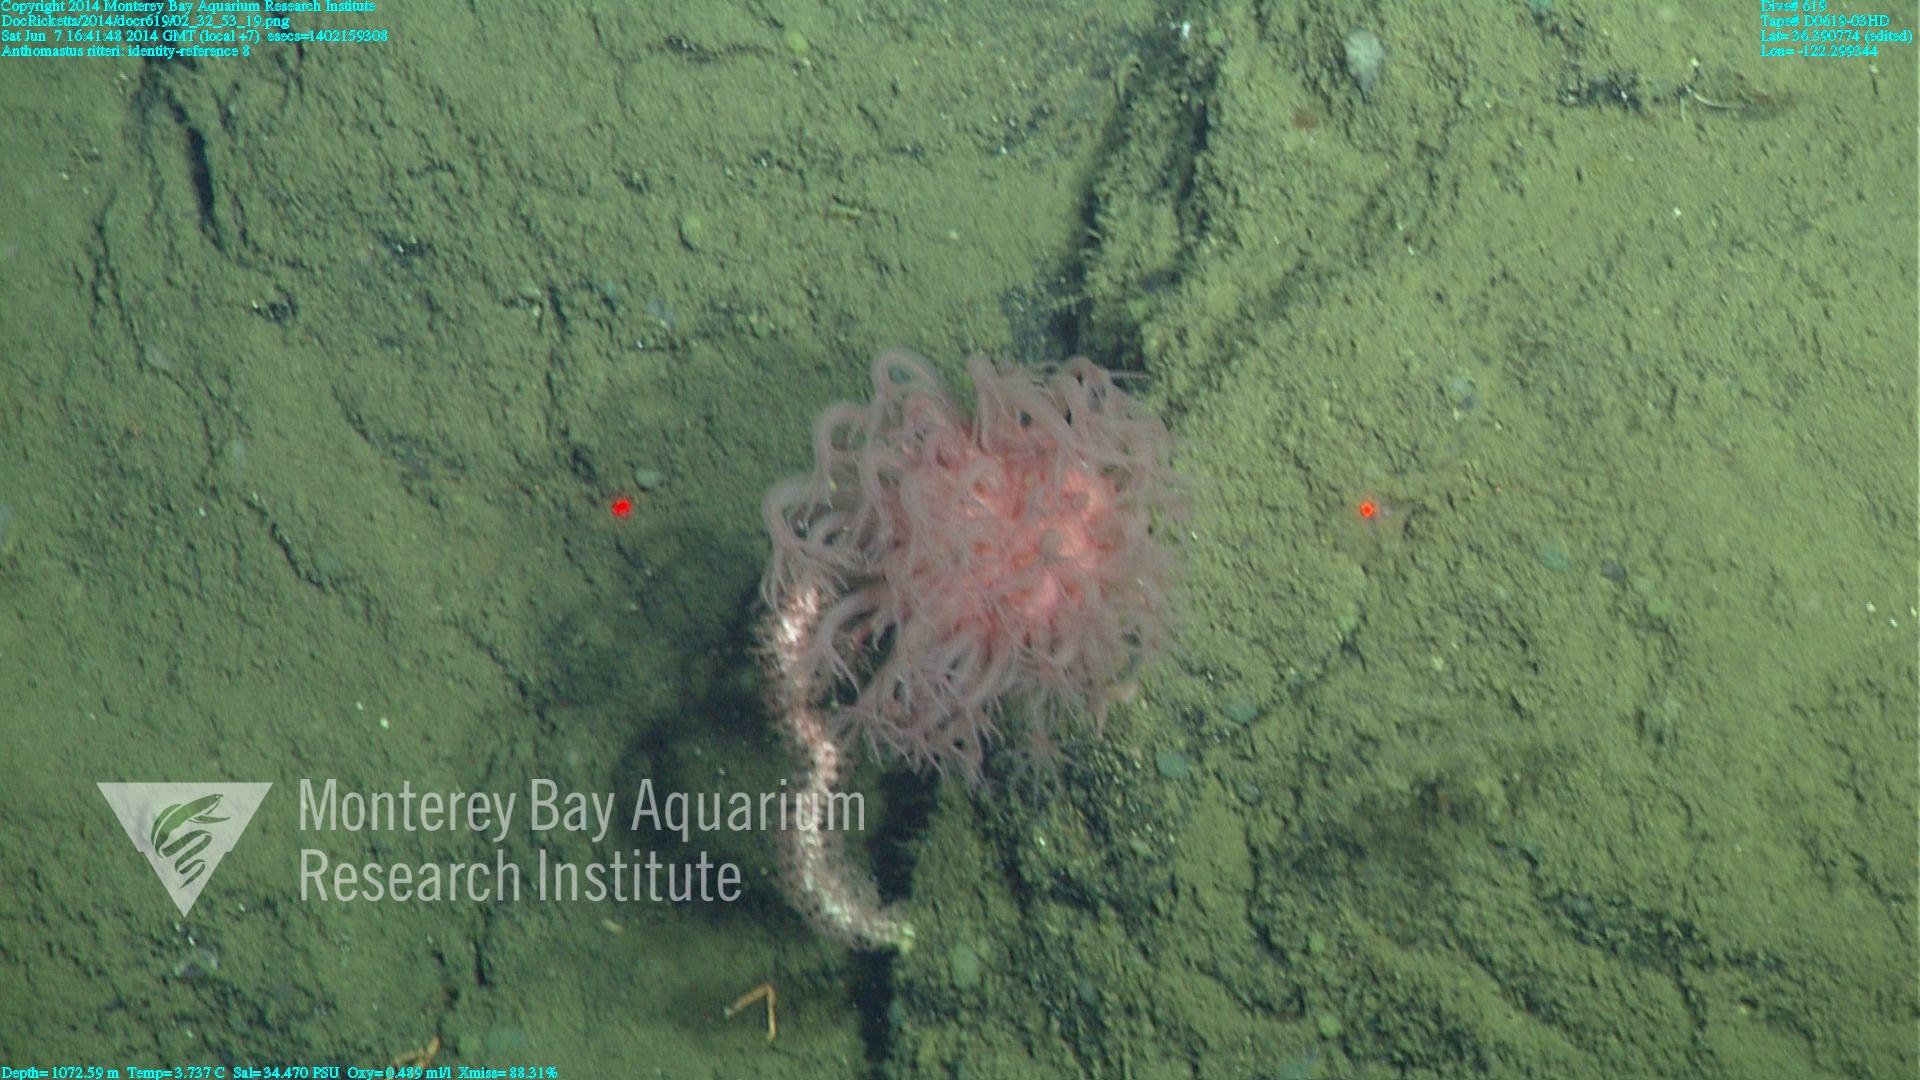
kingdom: Animalia
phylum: Cnidaria
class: Anthozoa
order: Scleralcyonacea
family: Coralliidae
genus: Heteropolypus
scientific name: Heteropolypus ritteri
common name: Ritter's soft coral
